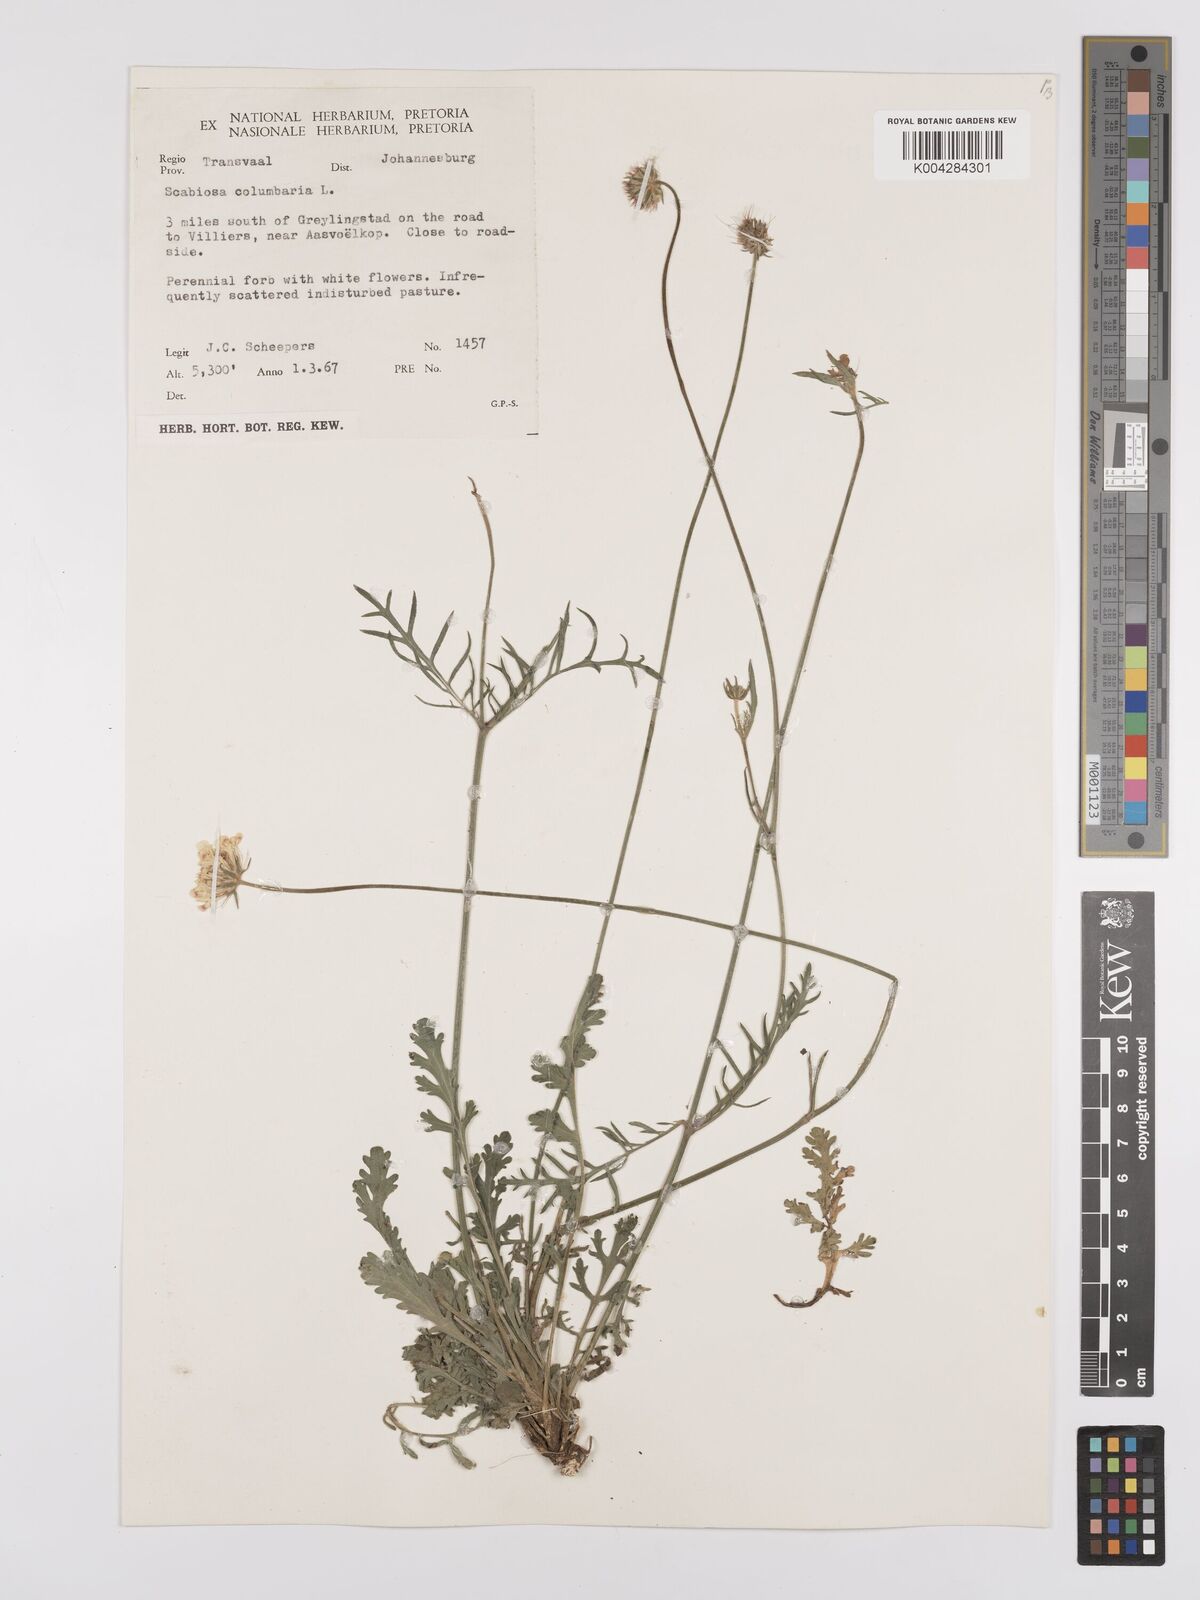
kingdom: Plantae
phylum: Tracheophyta
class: Magnoliopsida
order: Dipsacales
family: Caprifoliaceae
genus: Scabiosa
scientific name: Scabiosa austroafricana
